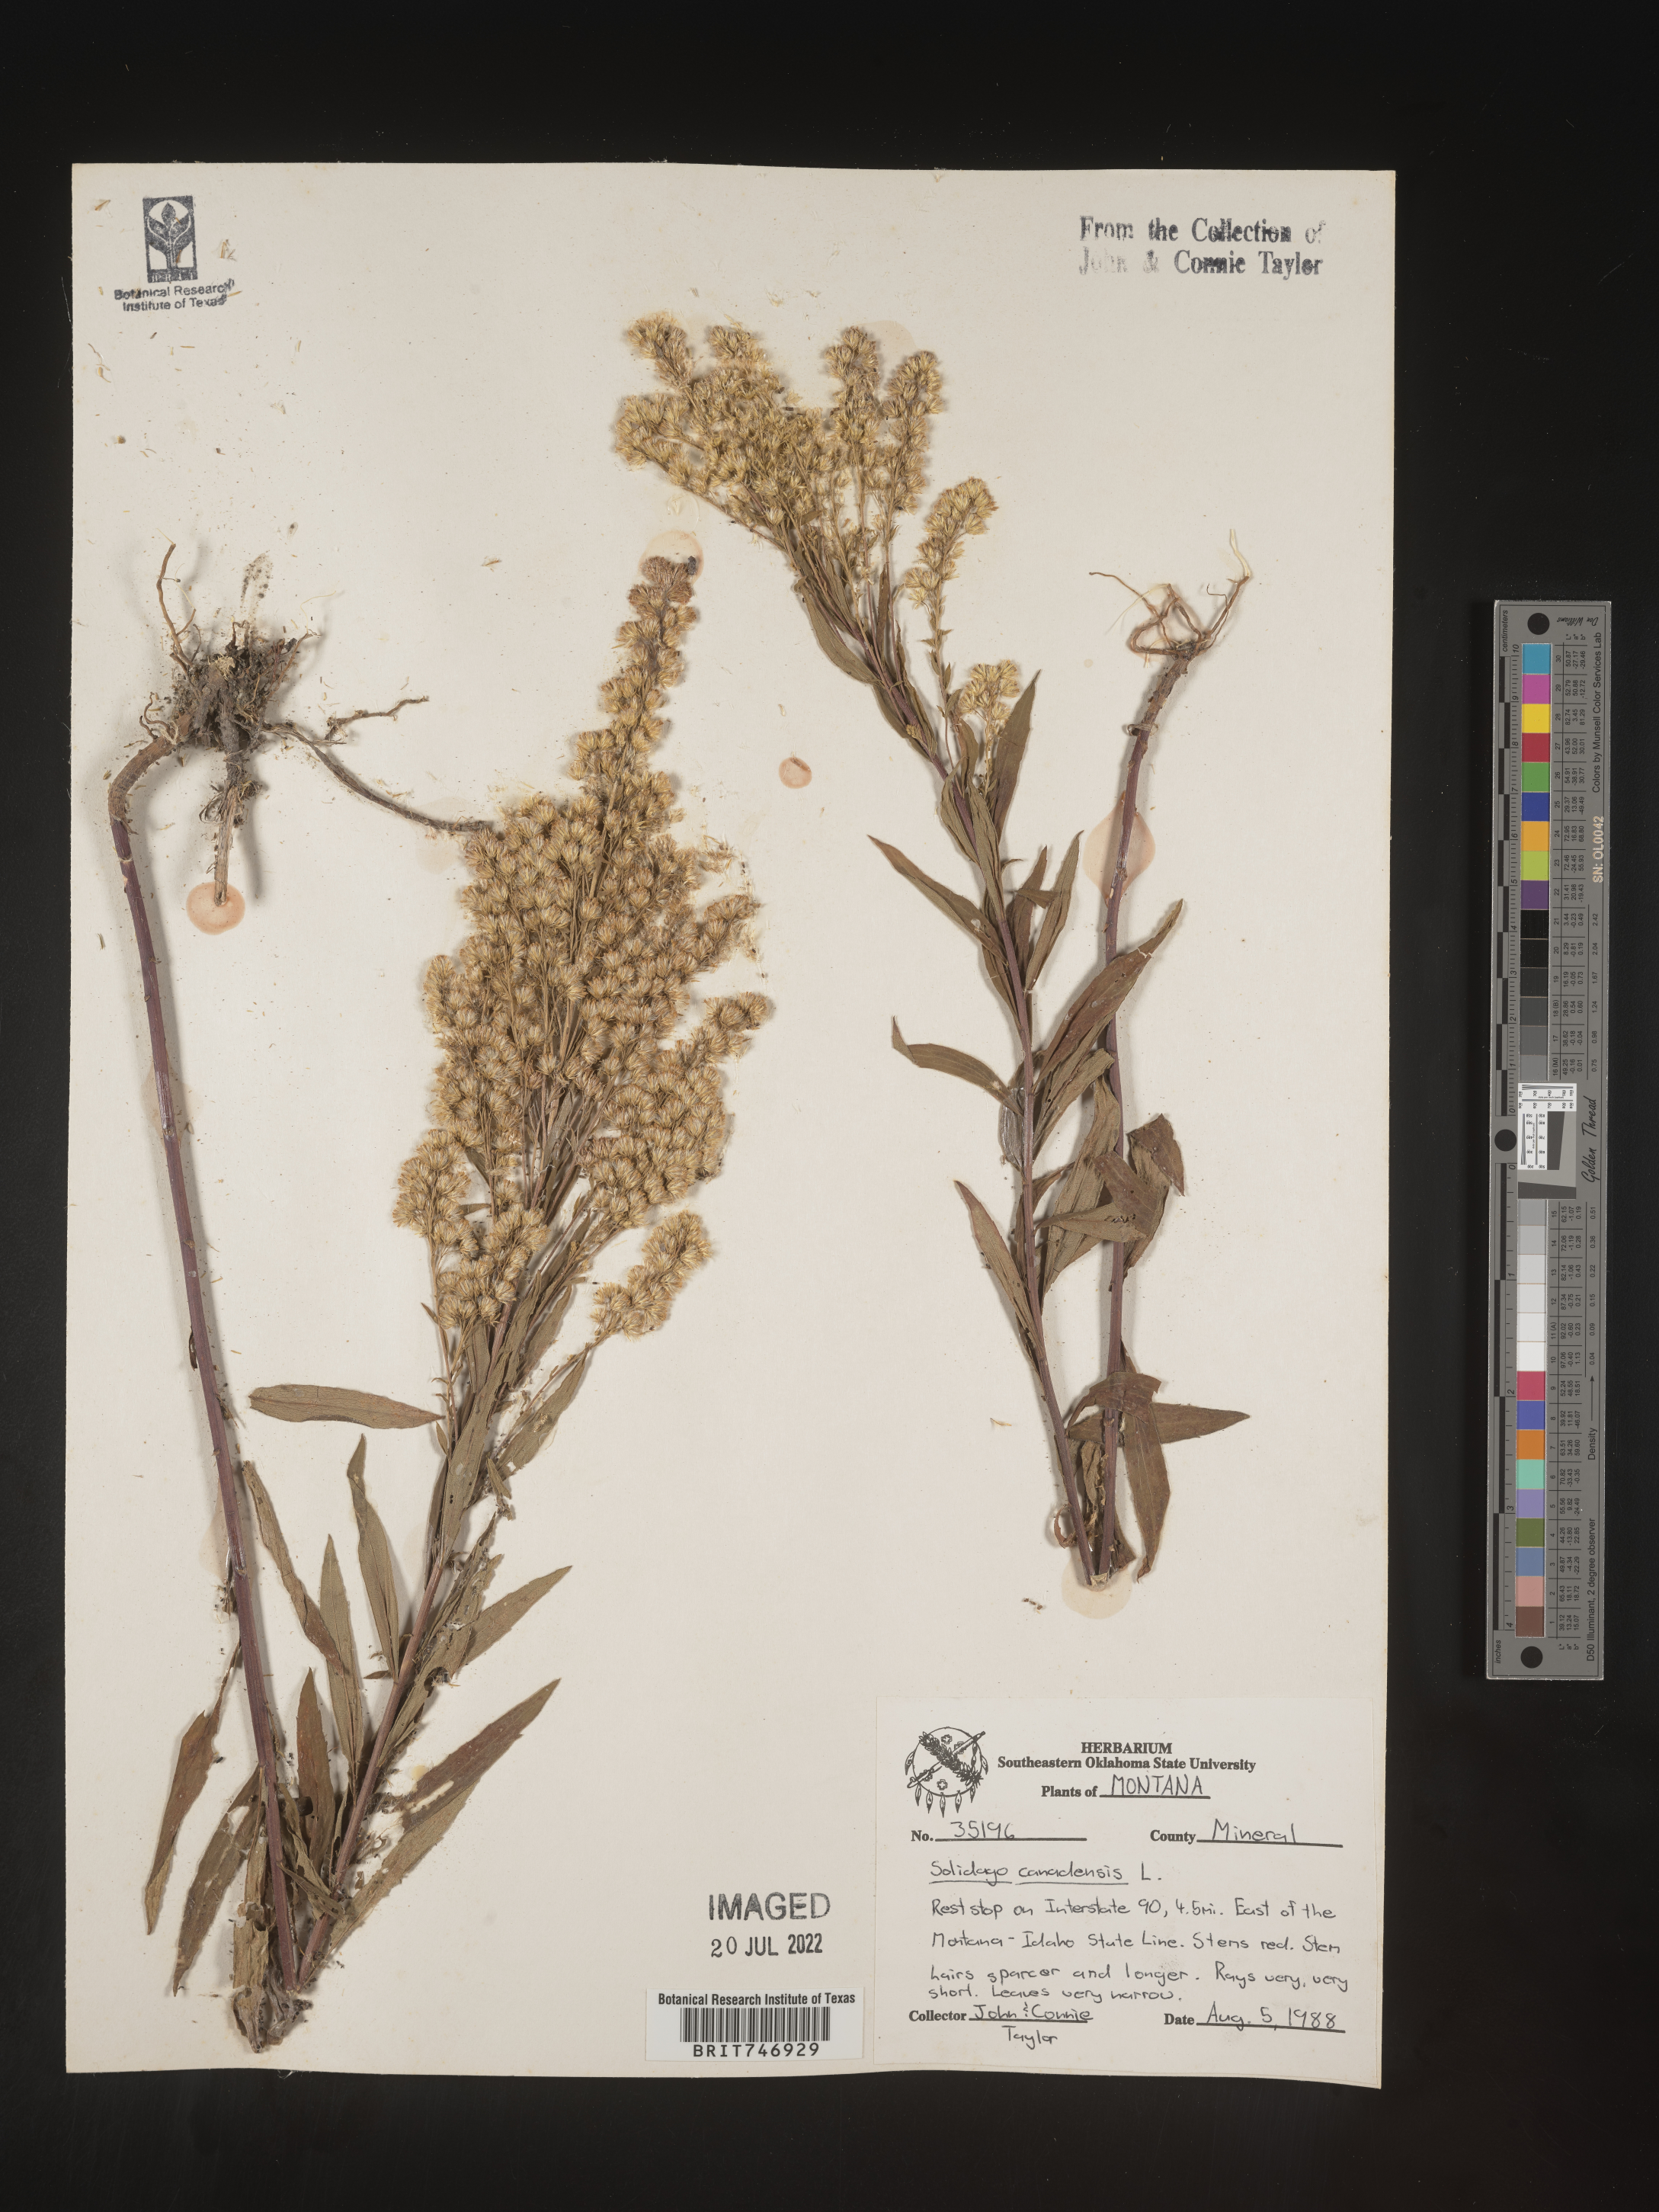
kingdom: Plantae
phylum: Tracheophyta
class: Magnoliopsida
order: Asterales
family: Asteraceae
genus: Solidago
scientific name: Solidago lepida
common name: Western canada goldenrod
